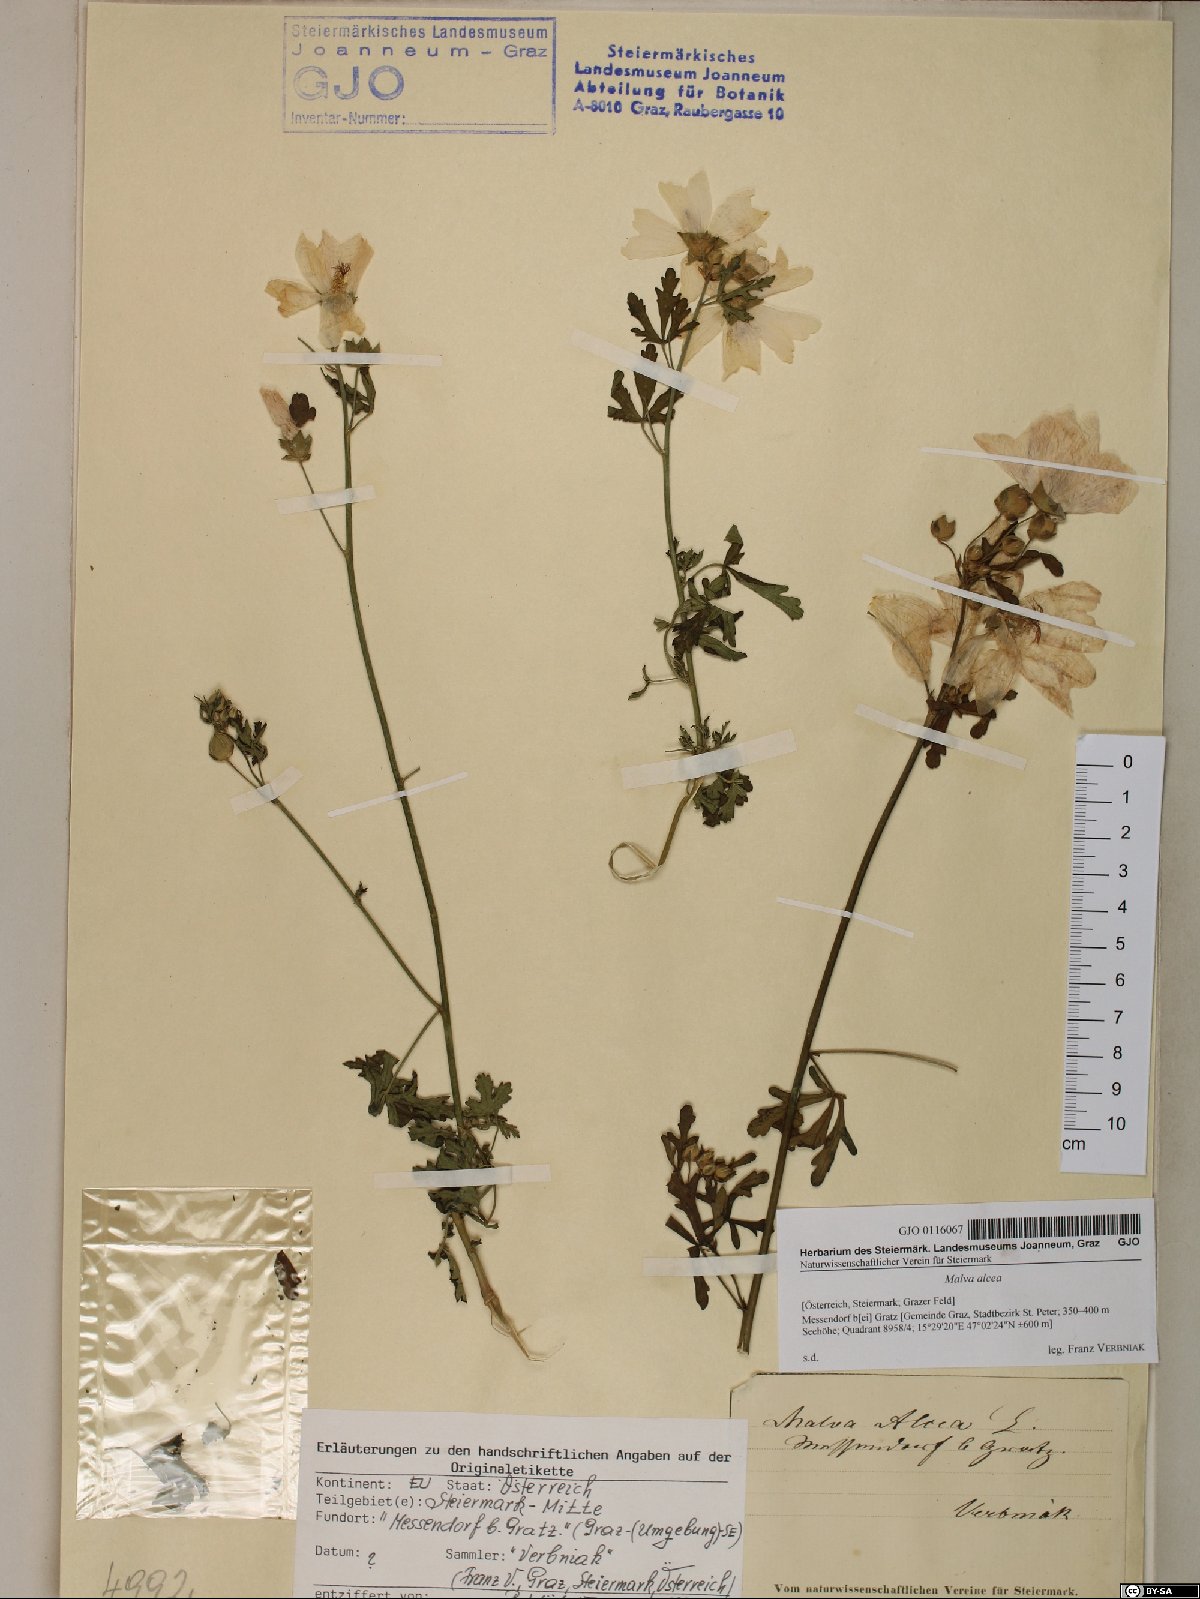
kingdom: Plantae
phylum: Tracheophyta
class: Magnoliopsida
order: Malvales
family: Malvaceae
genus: Malva
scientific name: Malva alcea
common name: Greater musk-mallow
